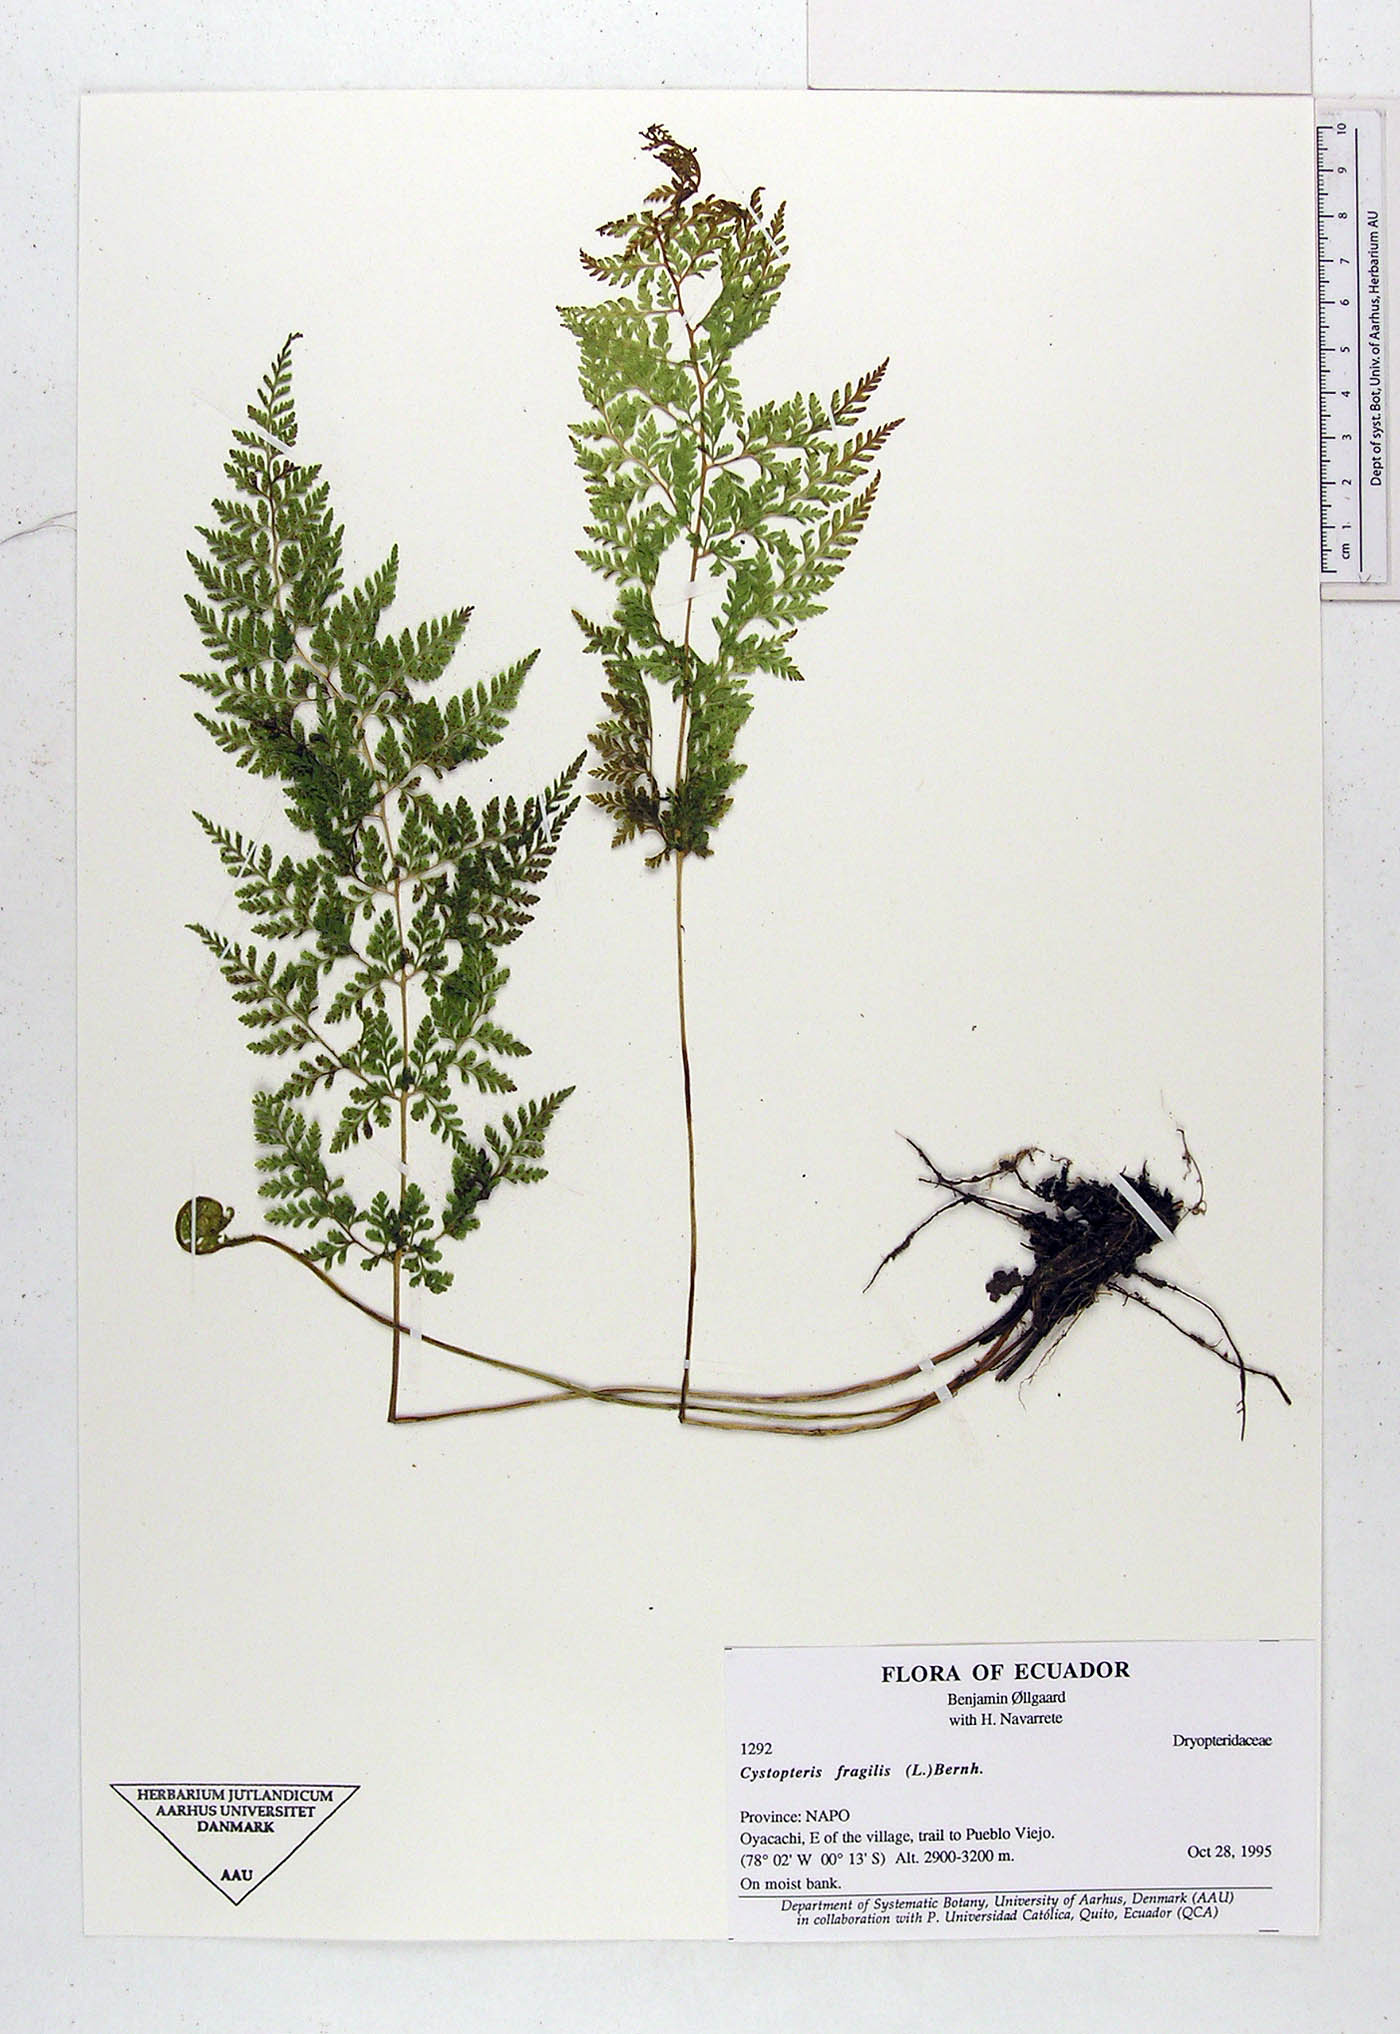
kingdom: Plantae
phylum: Tracheophyta
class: Polypodiopsida
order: Polypodiales
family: Cystopteridaceae
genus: Cystopteris
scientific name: Cystopteris fragilis
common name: Brittle bladder fern
